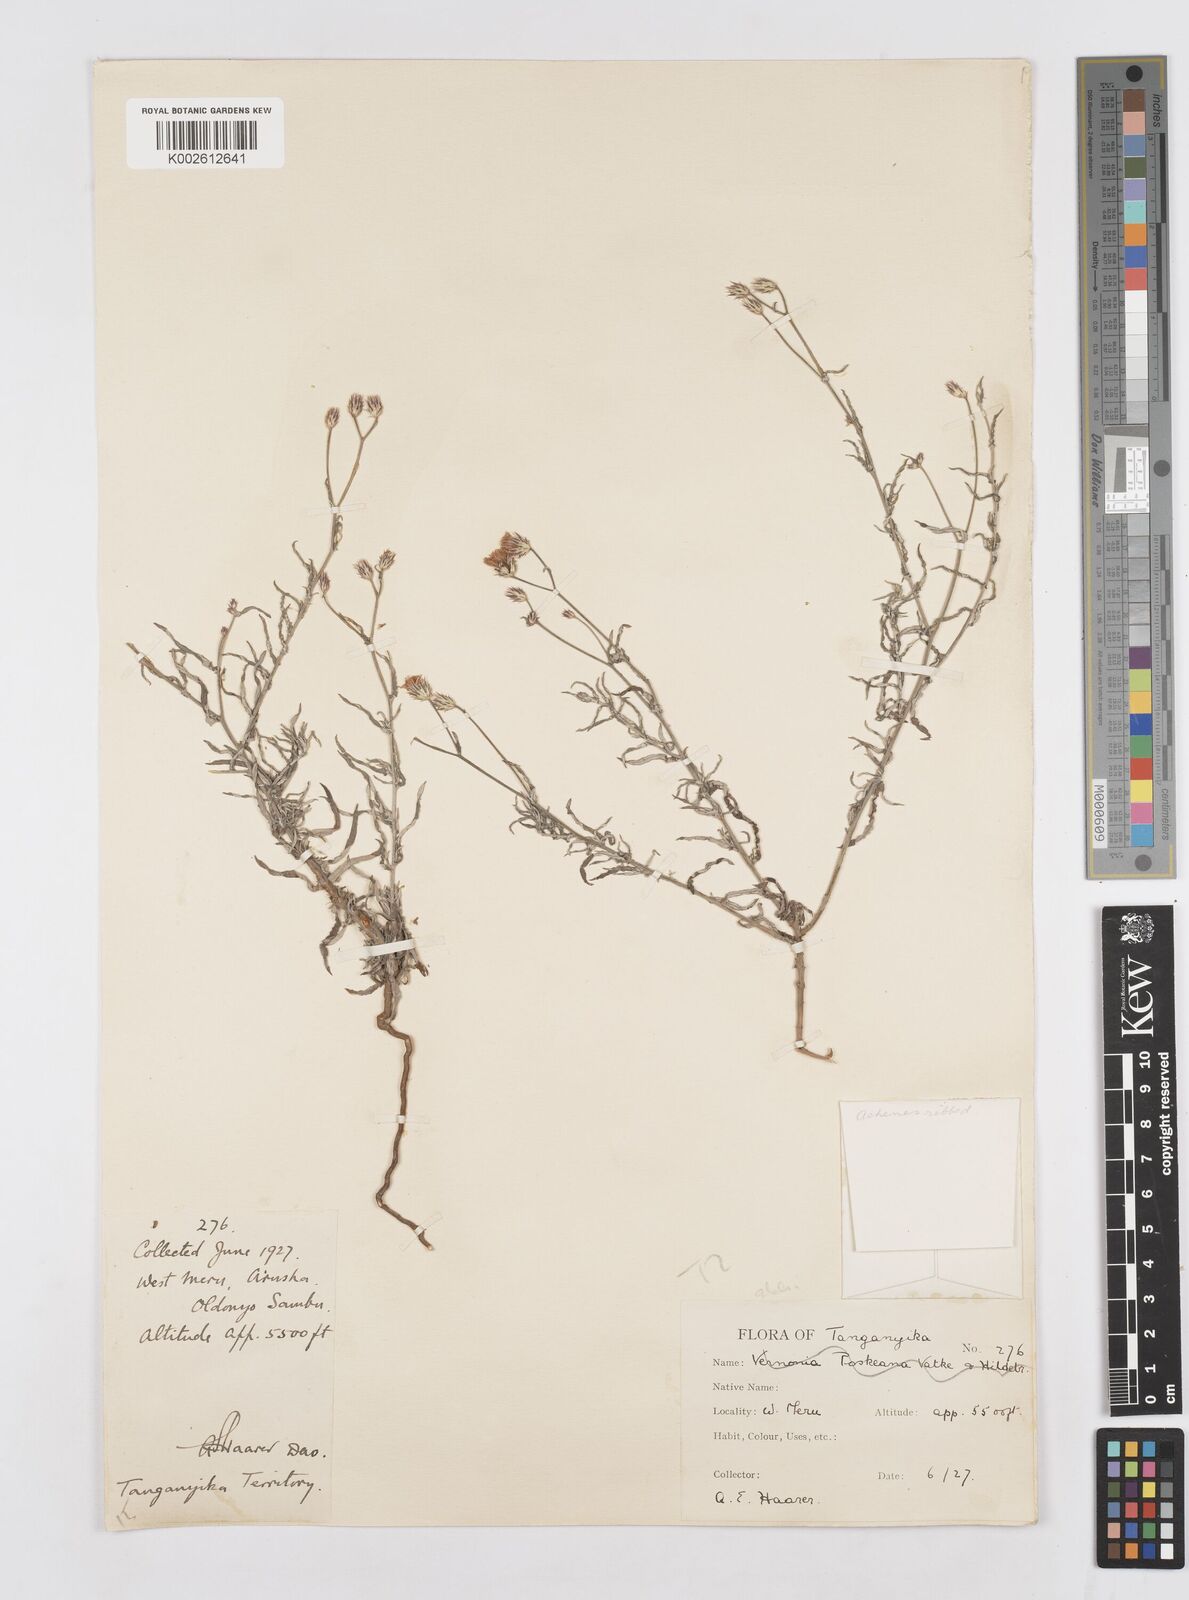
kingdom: Plantae
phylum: Tracheophyta
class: Magnoliopsida
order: Asterales
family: Asteraceae
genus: Gutenbergia
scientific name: Gutenbergia rueppellii
